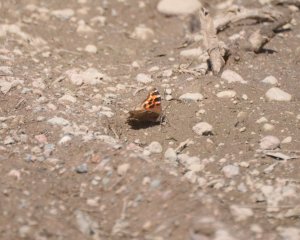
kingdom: Animalia
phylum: Arthropoda
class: Insecta
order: Lepidoptera
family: Nymphalidae
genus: Polygonia
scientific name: Polygonia vaualbum
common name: Compton Tortoiseshell
